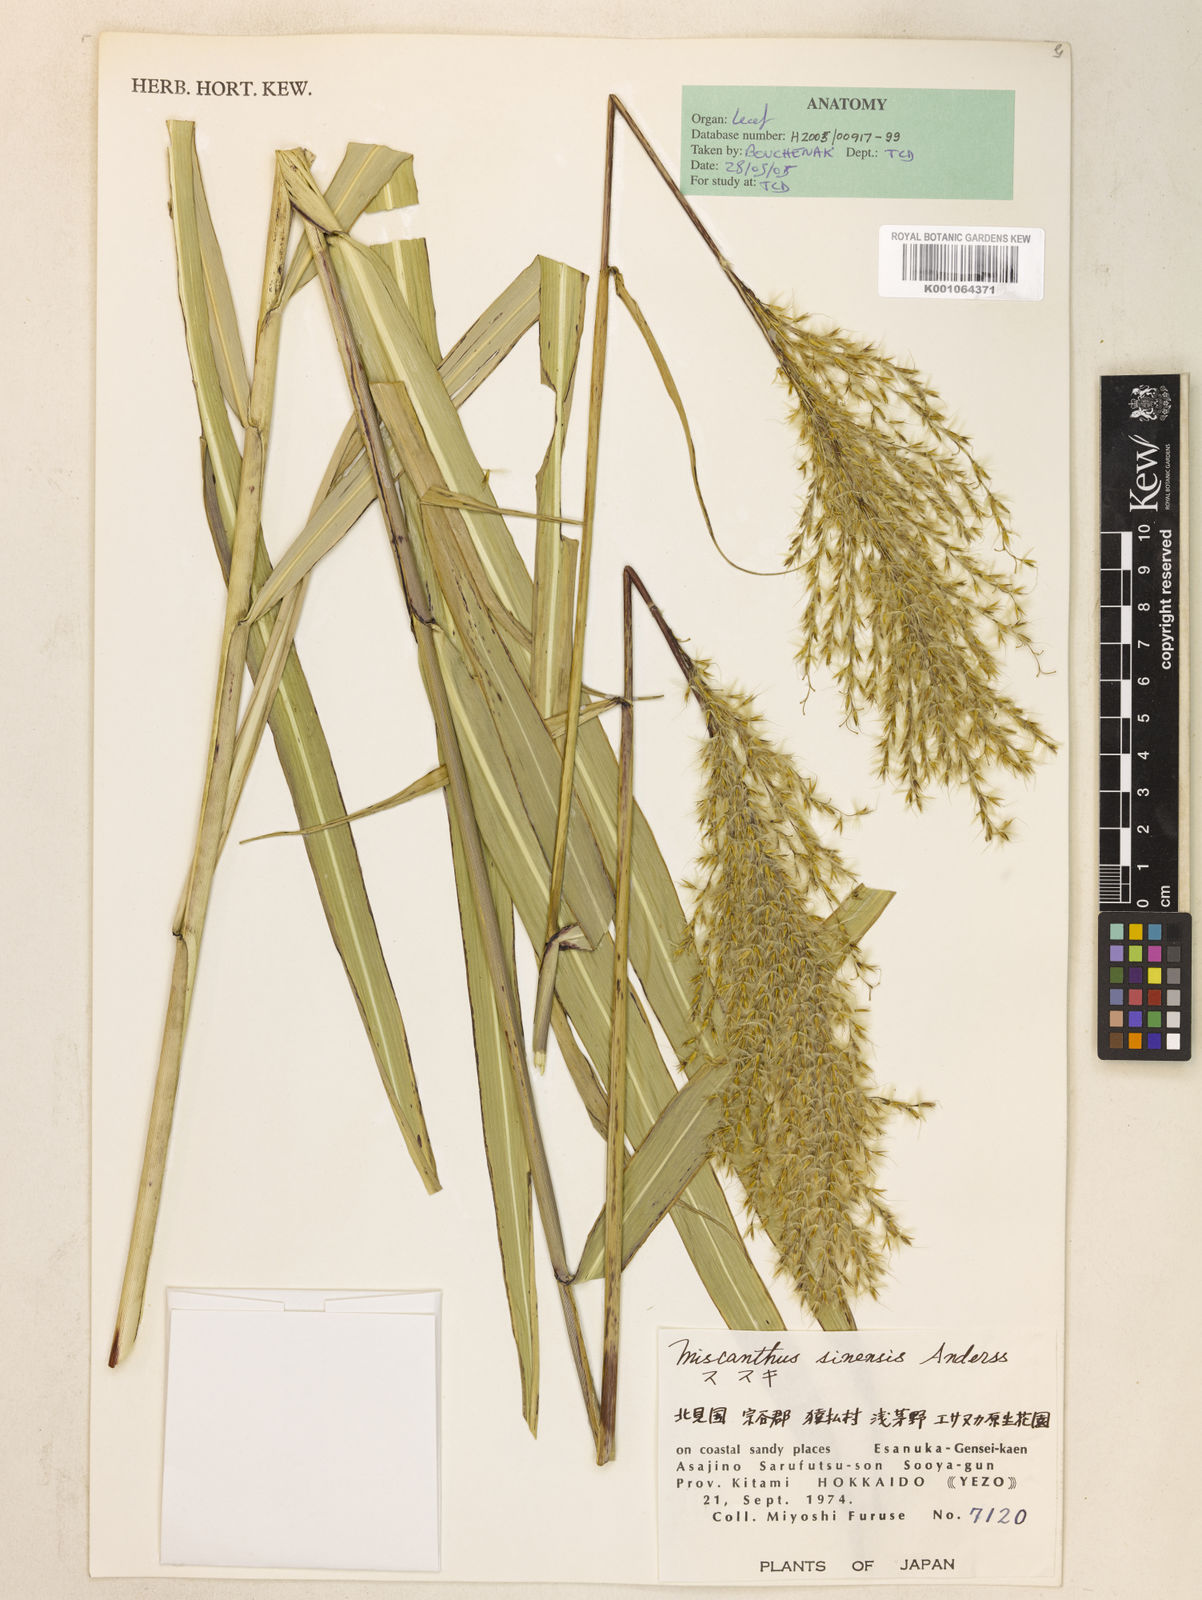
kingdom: Plantae
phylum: Tracheophyta
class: Liliopsida
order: Poales
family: Poaceae
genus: Miscanthus
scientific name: Miscanthus sinensis
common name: Chinese silvergrass
